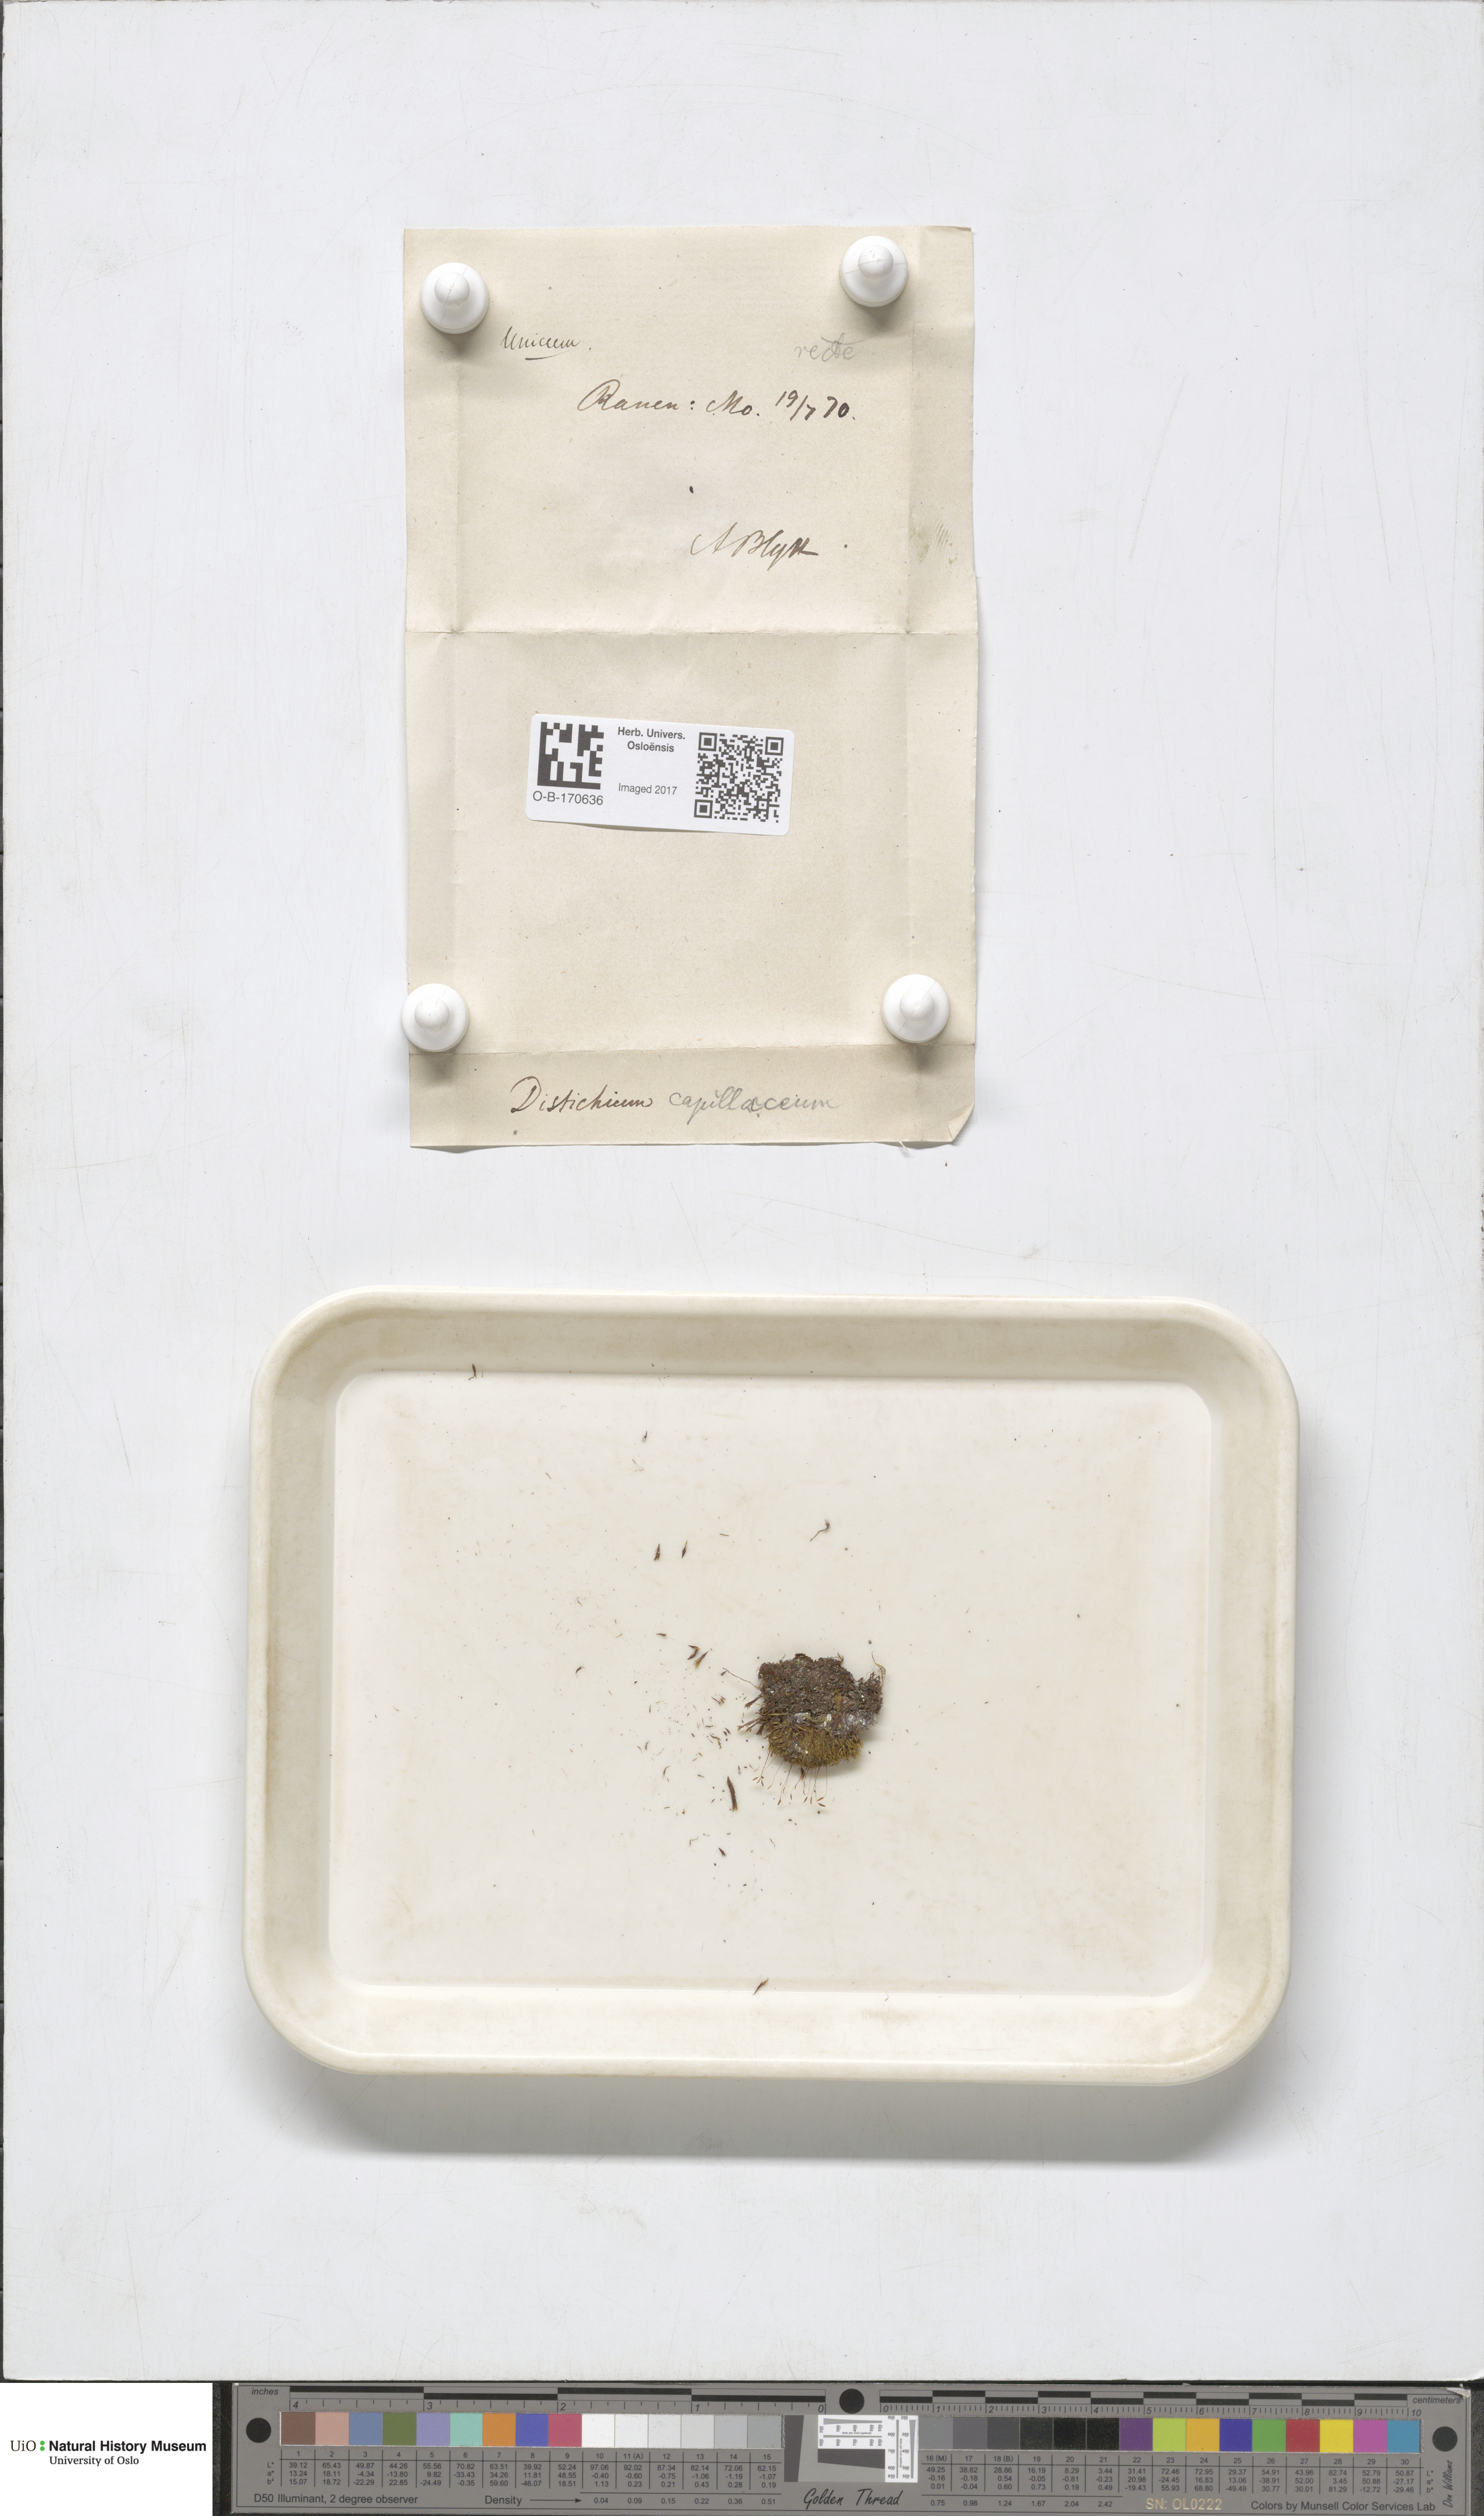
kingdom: Plantae
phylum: Bryophyta
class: Bryopsida
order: Scouleriales
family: Distichiaceae
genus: Distichium
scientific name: Distichium capillaceum
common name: Erect-fruited iris moss
